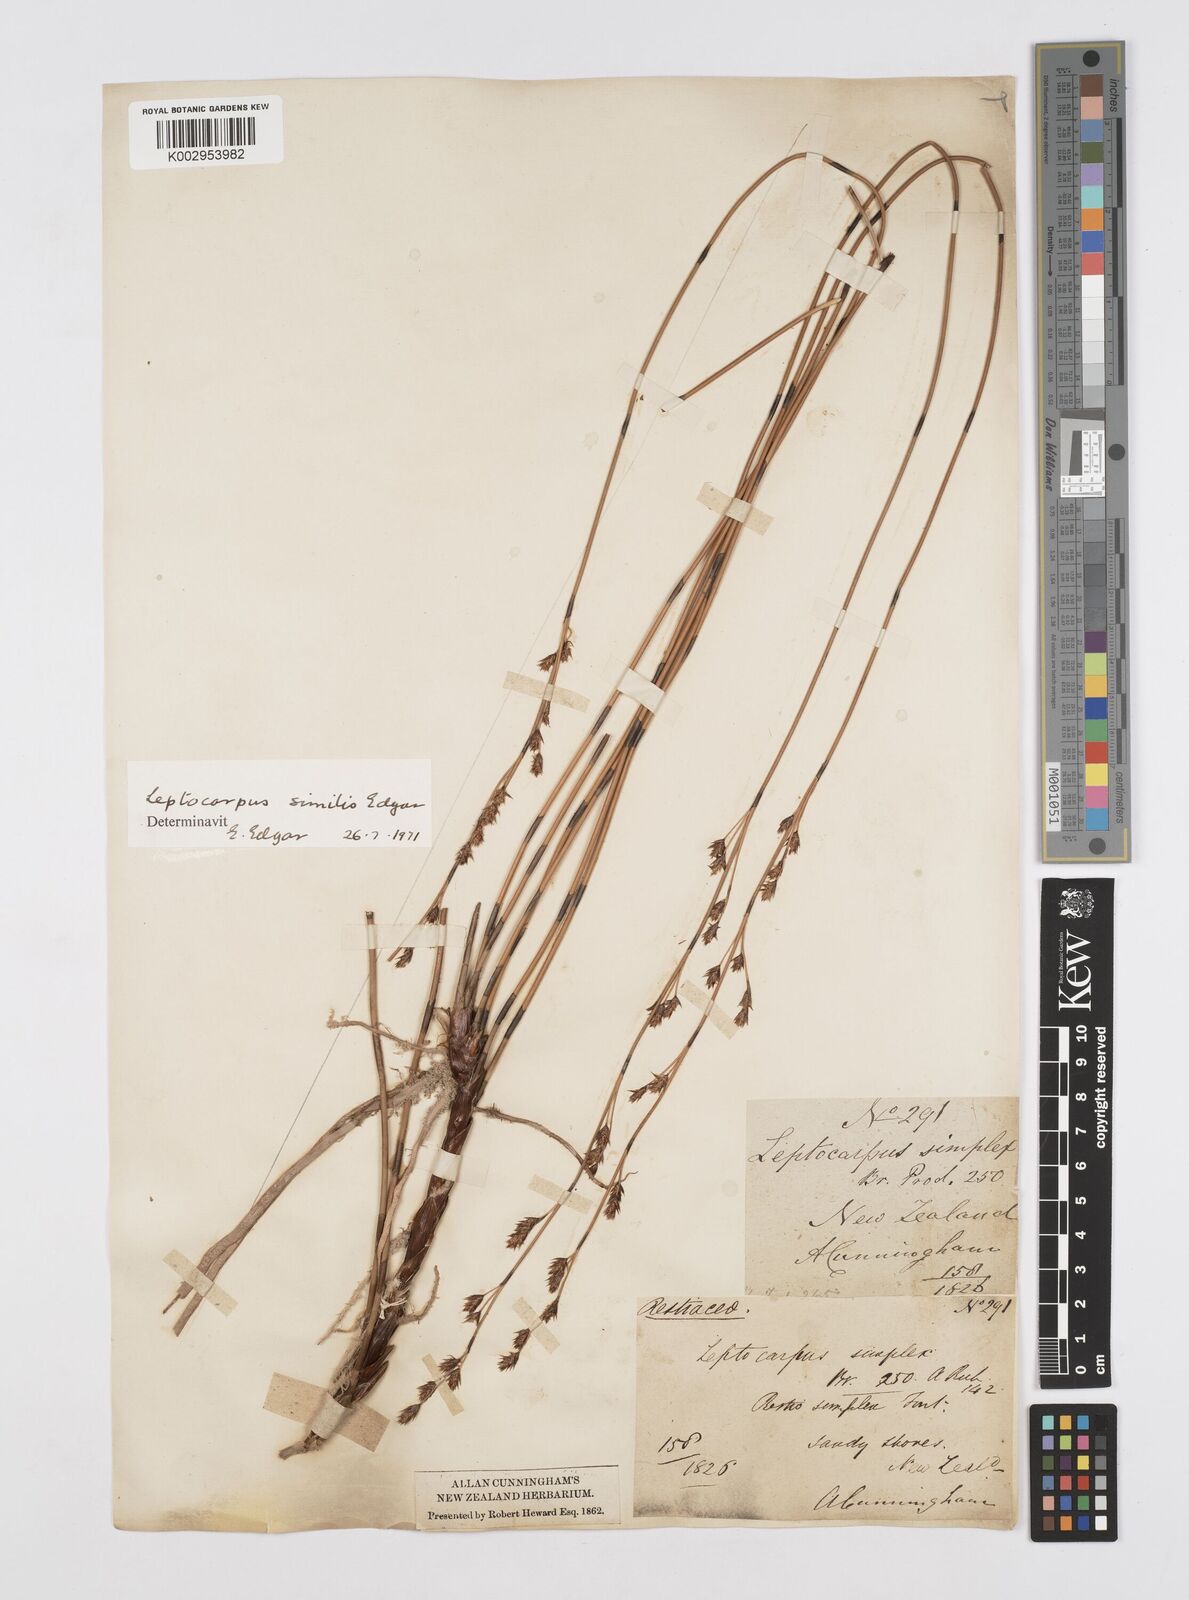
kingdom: Plantae
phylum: Tracheophyta
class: Liliopsida
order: Poales
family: Restionaceae
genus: Apodasmia
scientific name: Apodasmia similis
